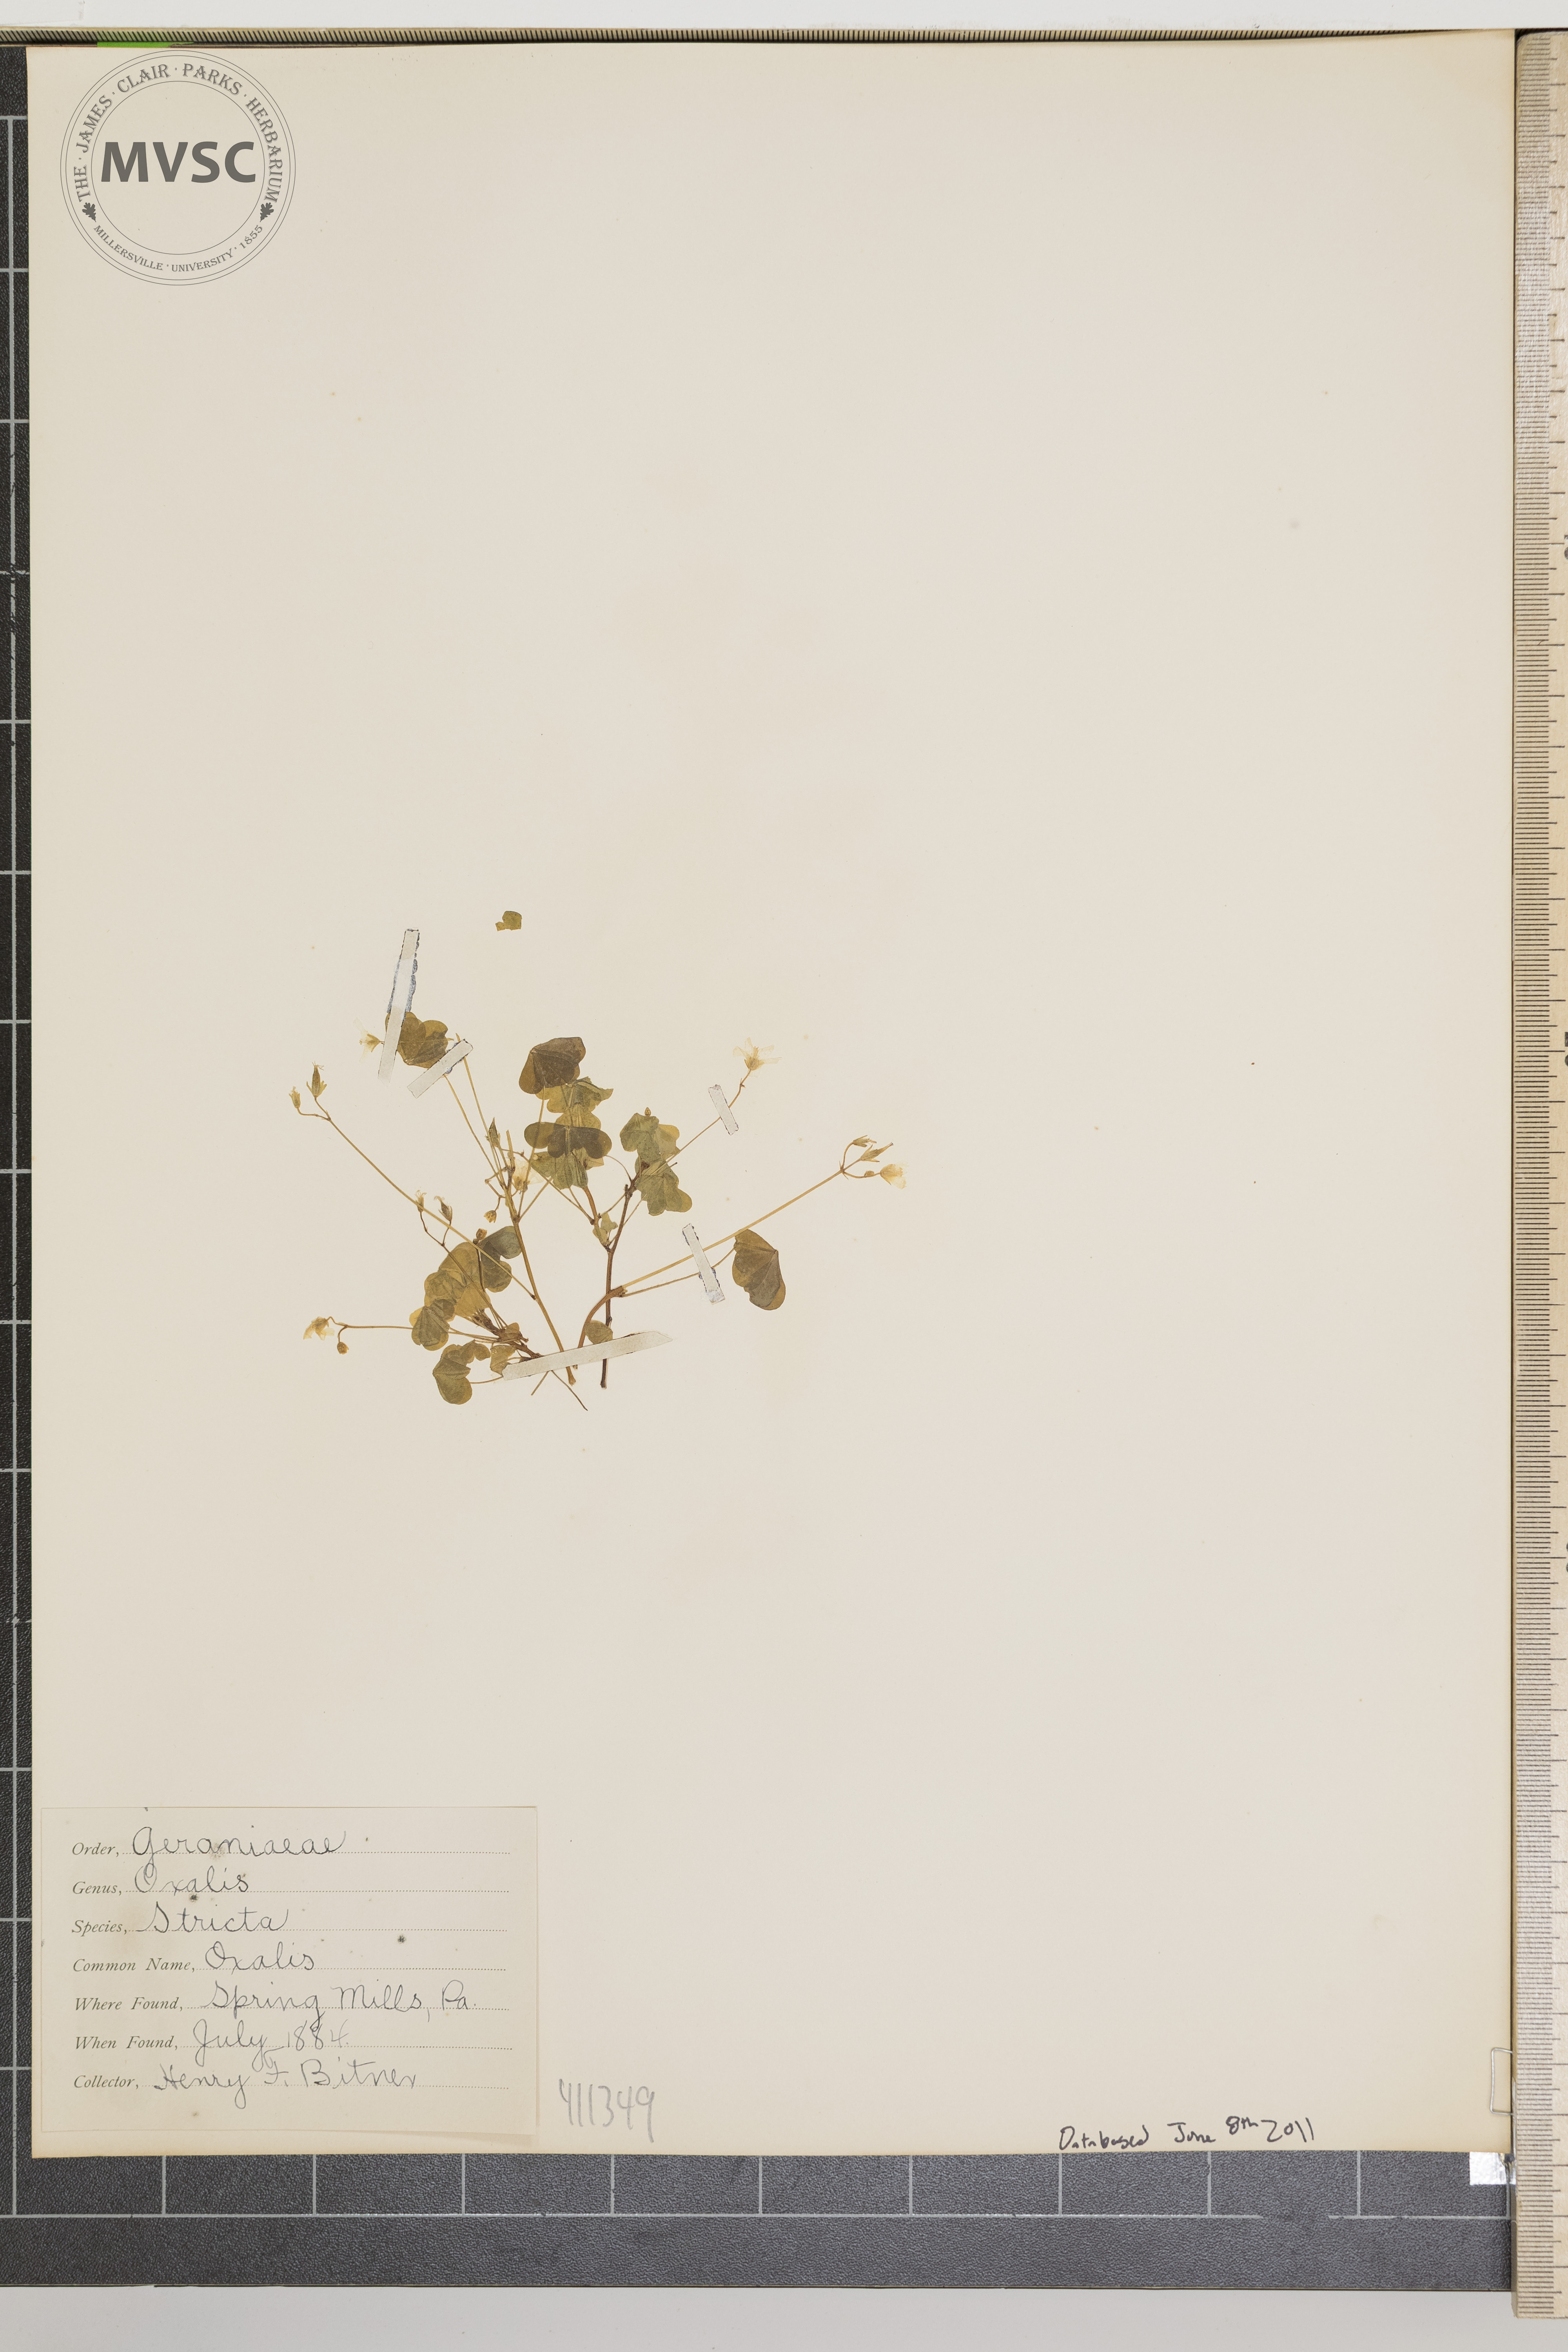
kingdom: Plantae
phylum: Tracheophyta
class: Magnoliopsida
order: Oxalidales
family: Oxalidaceae
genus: Oxalis
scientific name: Oxalis stricta
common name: Upright yellow-sorrel
